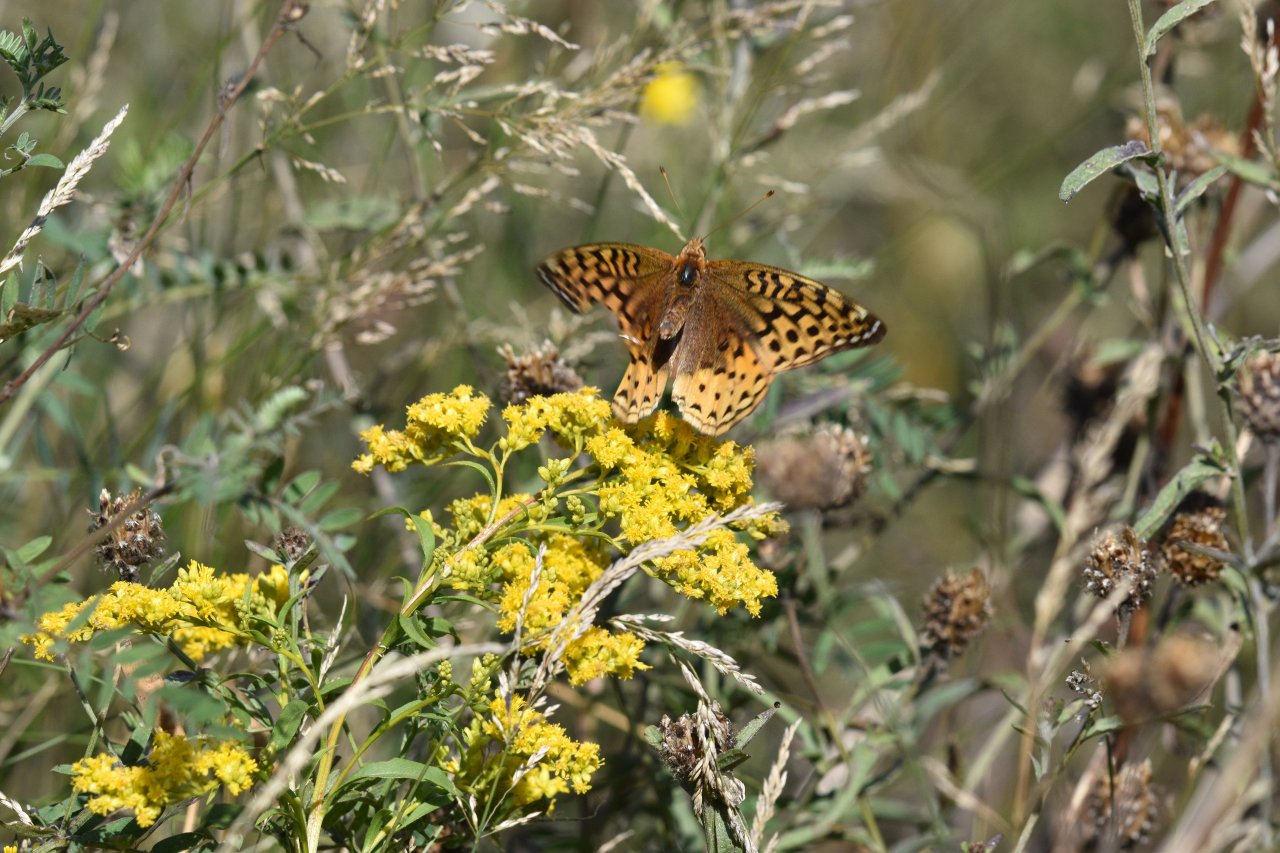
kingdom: Animalia
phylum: Arthropoda
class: Insecta
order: Lepidoptera
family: Nymphalidae
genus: Speyeria
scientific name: Speyeria cybele
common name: Great Spangled Fritillary
